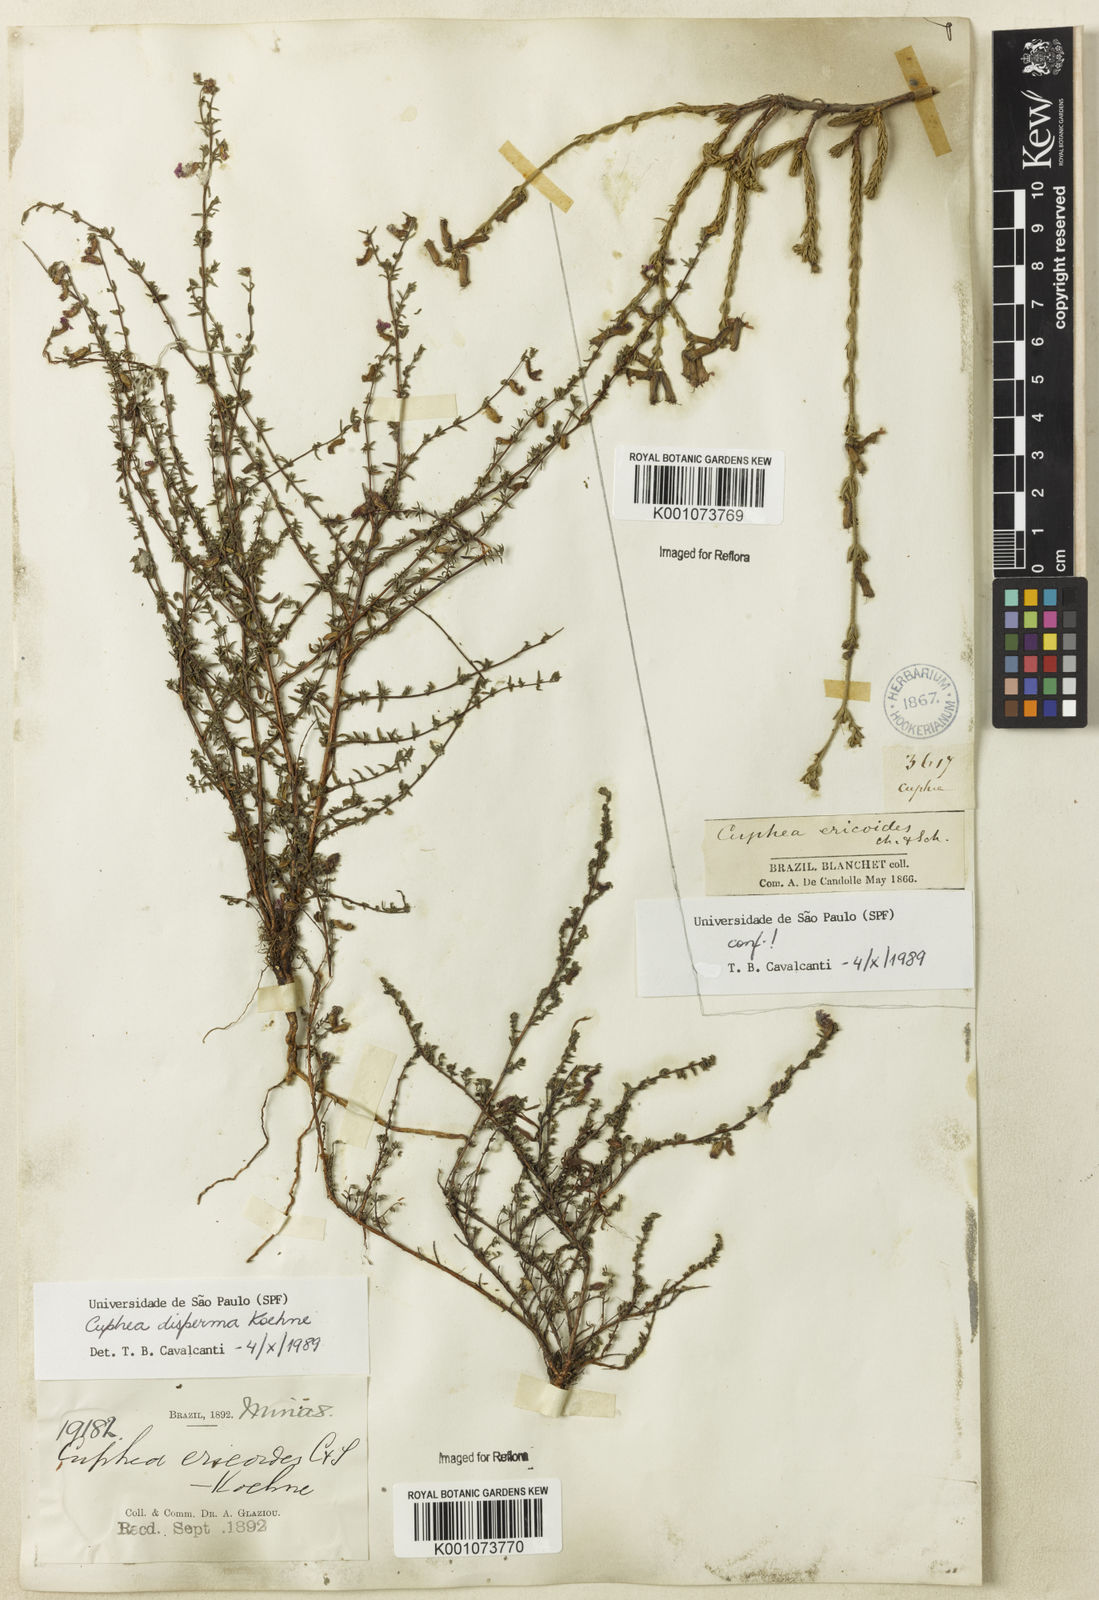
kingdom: Plantae
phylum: Tracheophyta
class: Magnoliopsida
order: Myrtales
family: Lythraceae
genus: Cuphea
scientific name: Cuphea disperma
